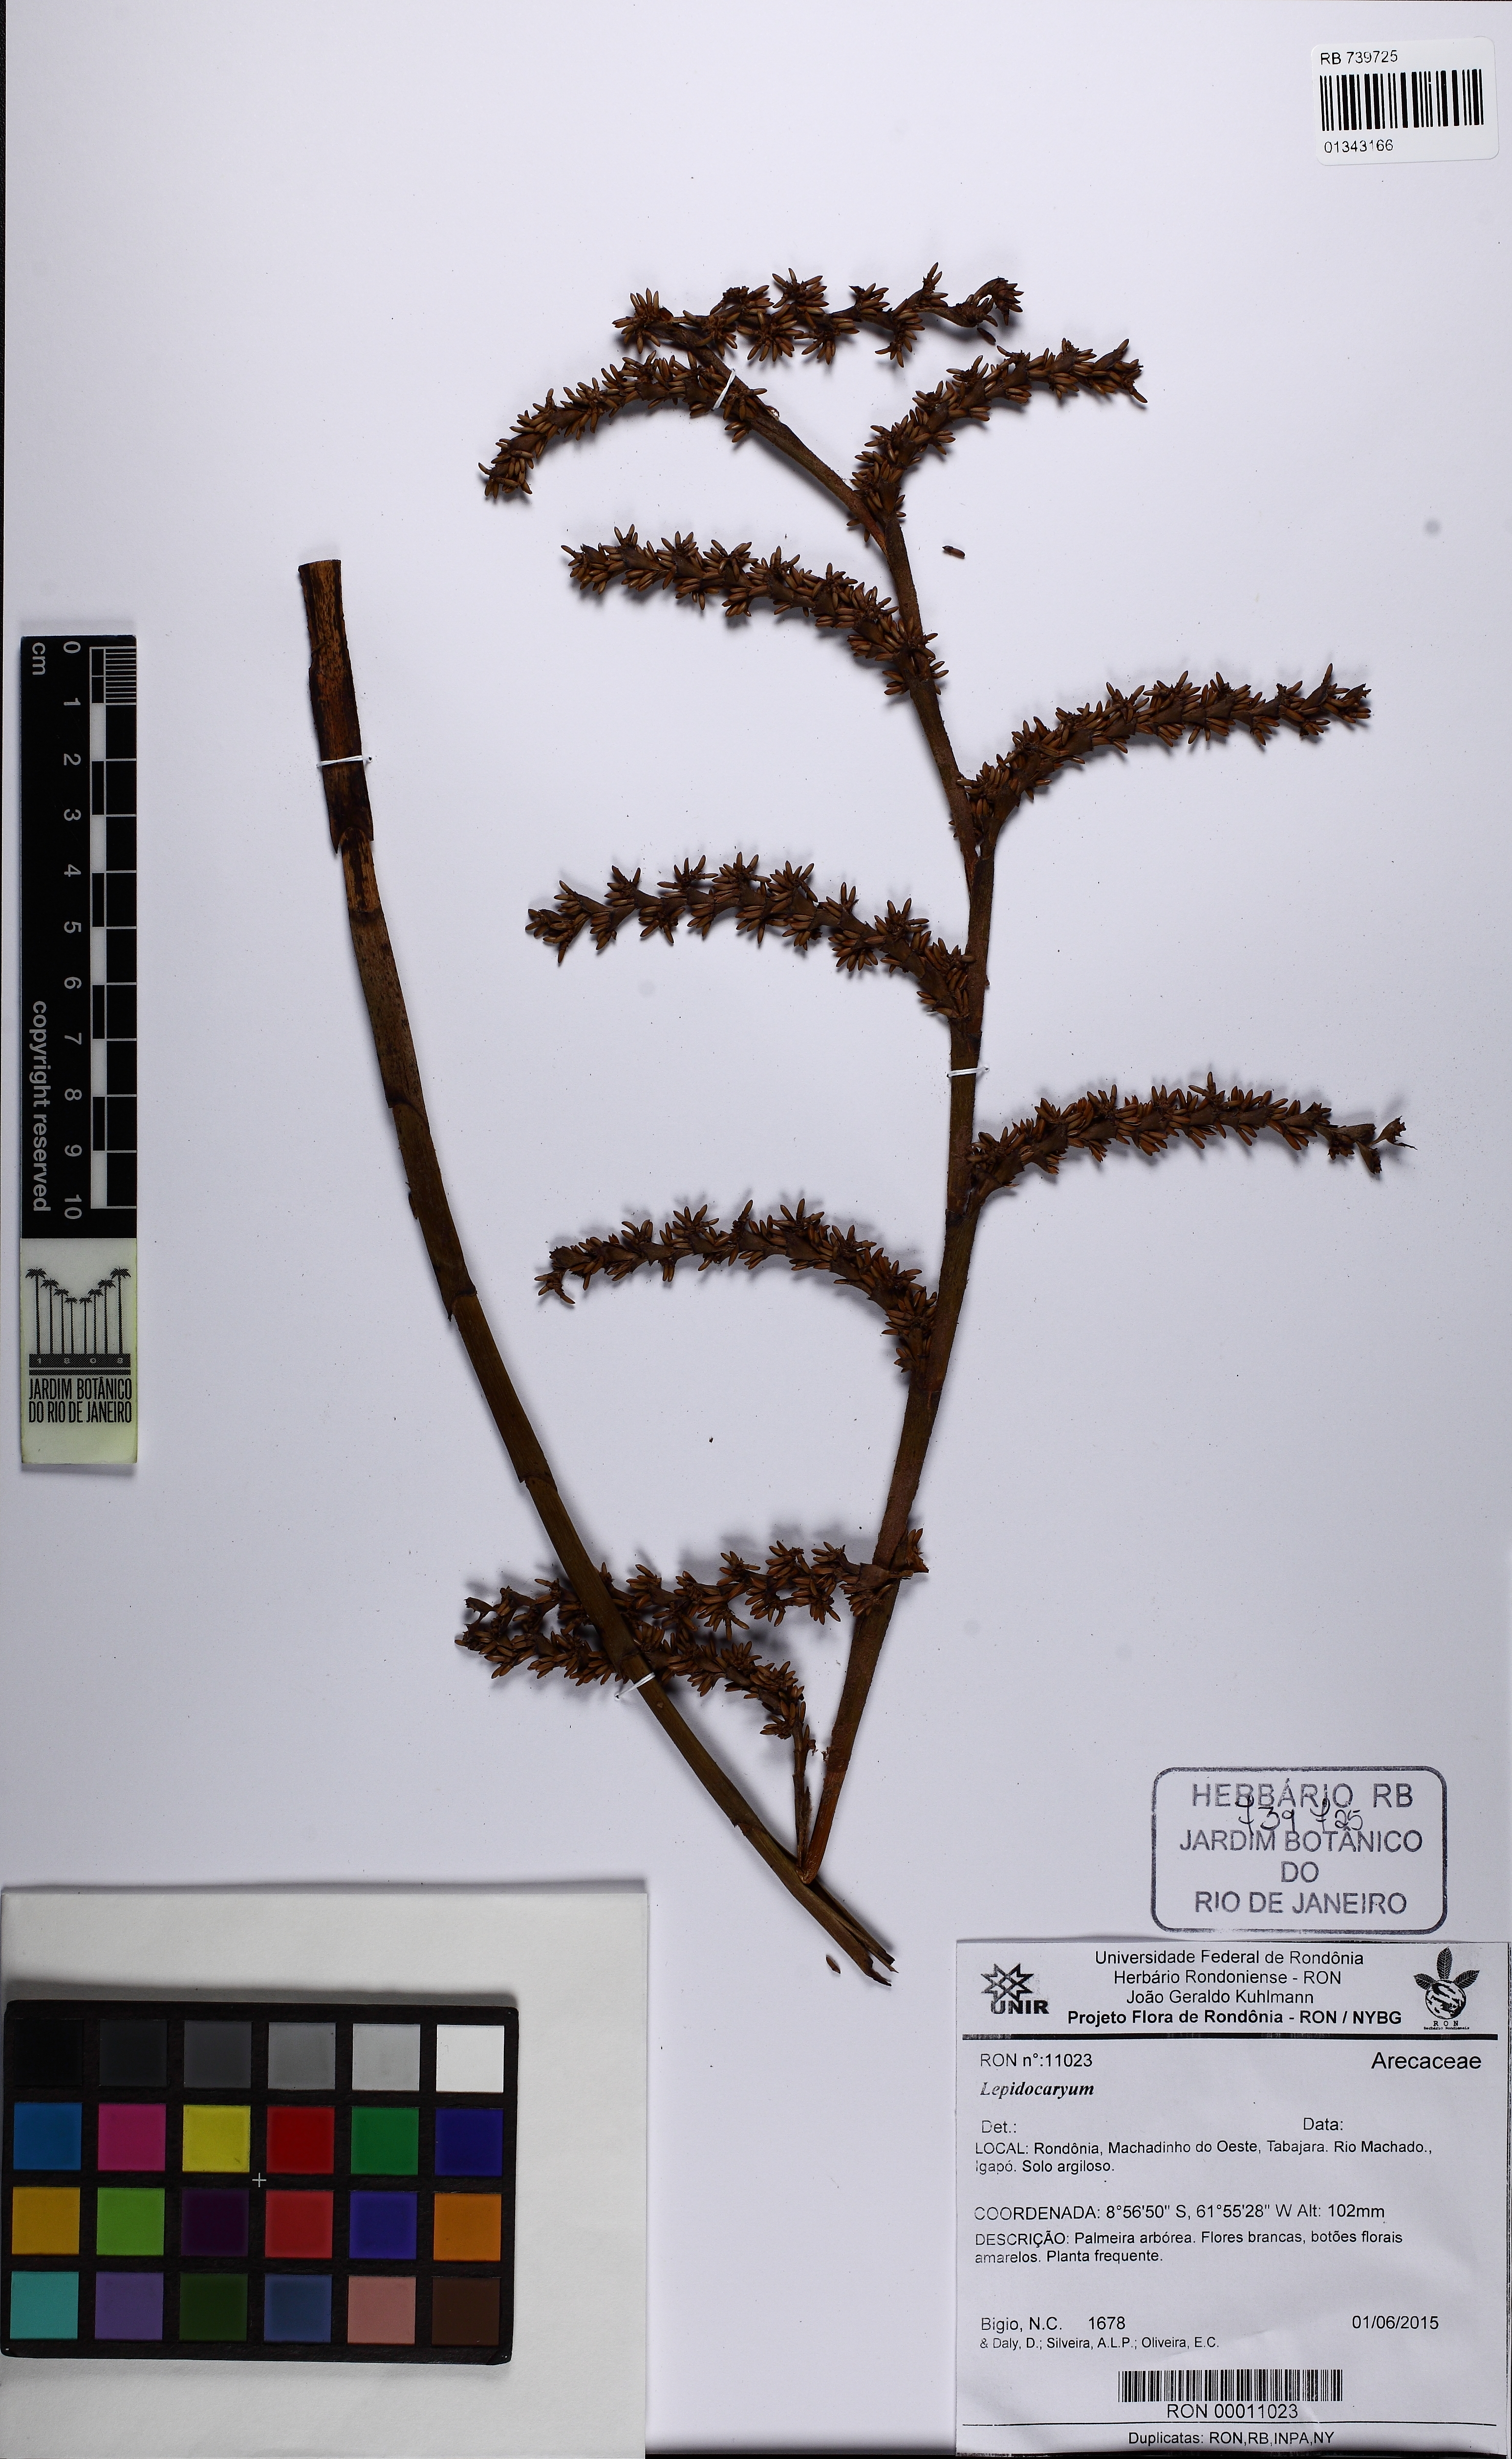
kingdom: Plantae
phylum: Tracheophyta
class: Liliopsida
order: Arecales
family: Arecaceae
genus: Lepidocaryum
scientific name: Lepidocaryum
